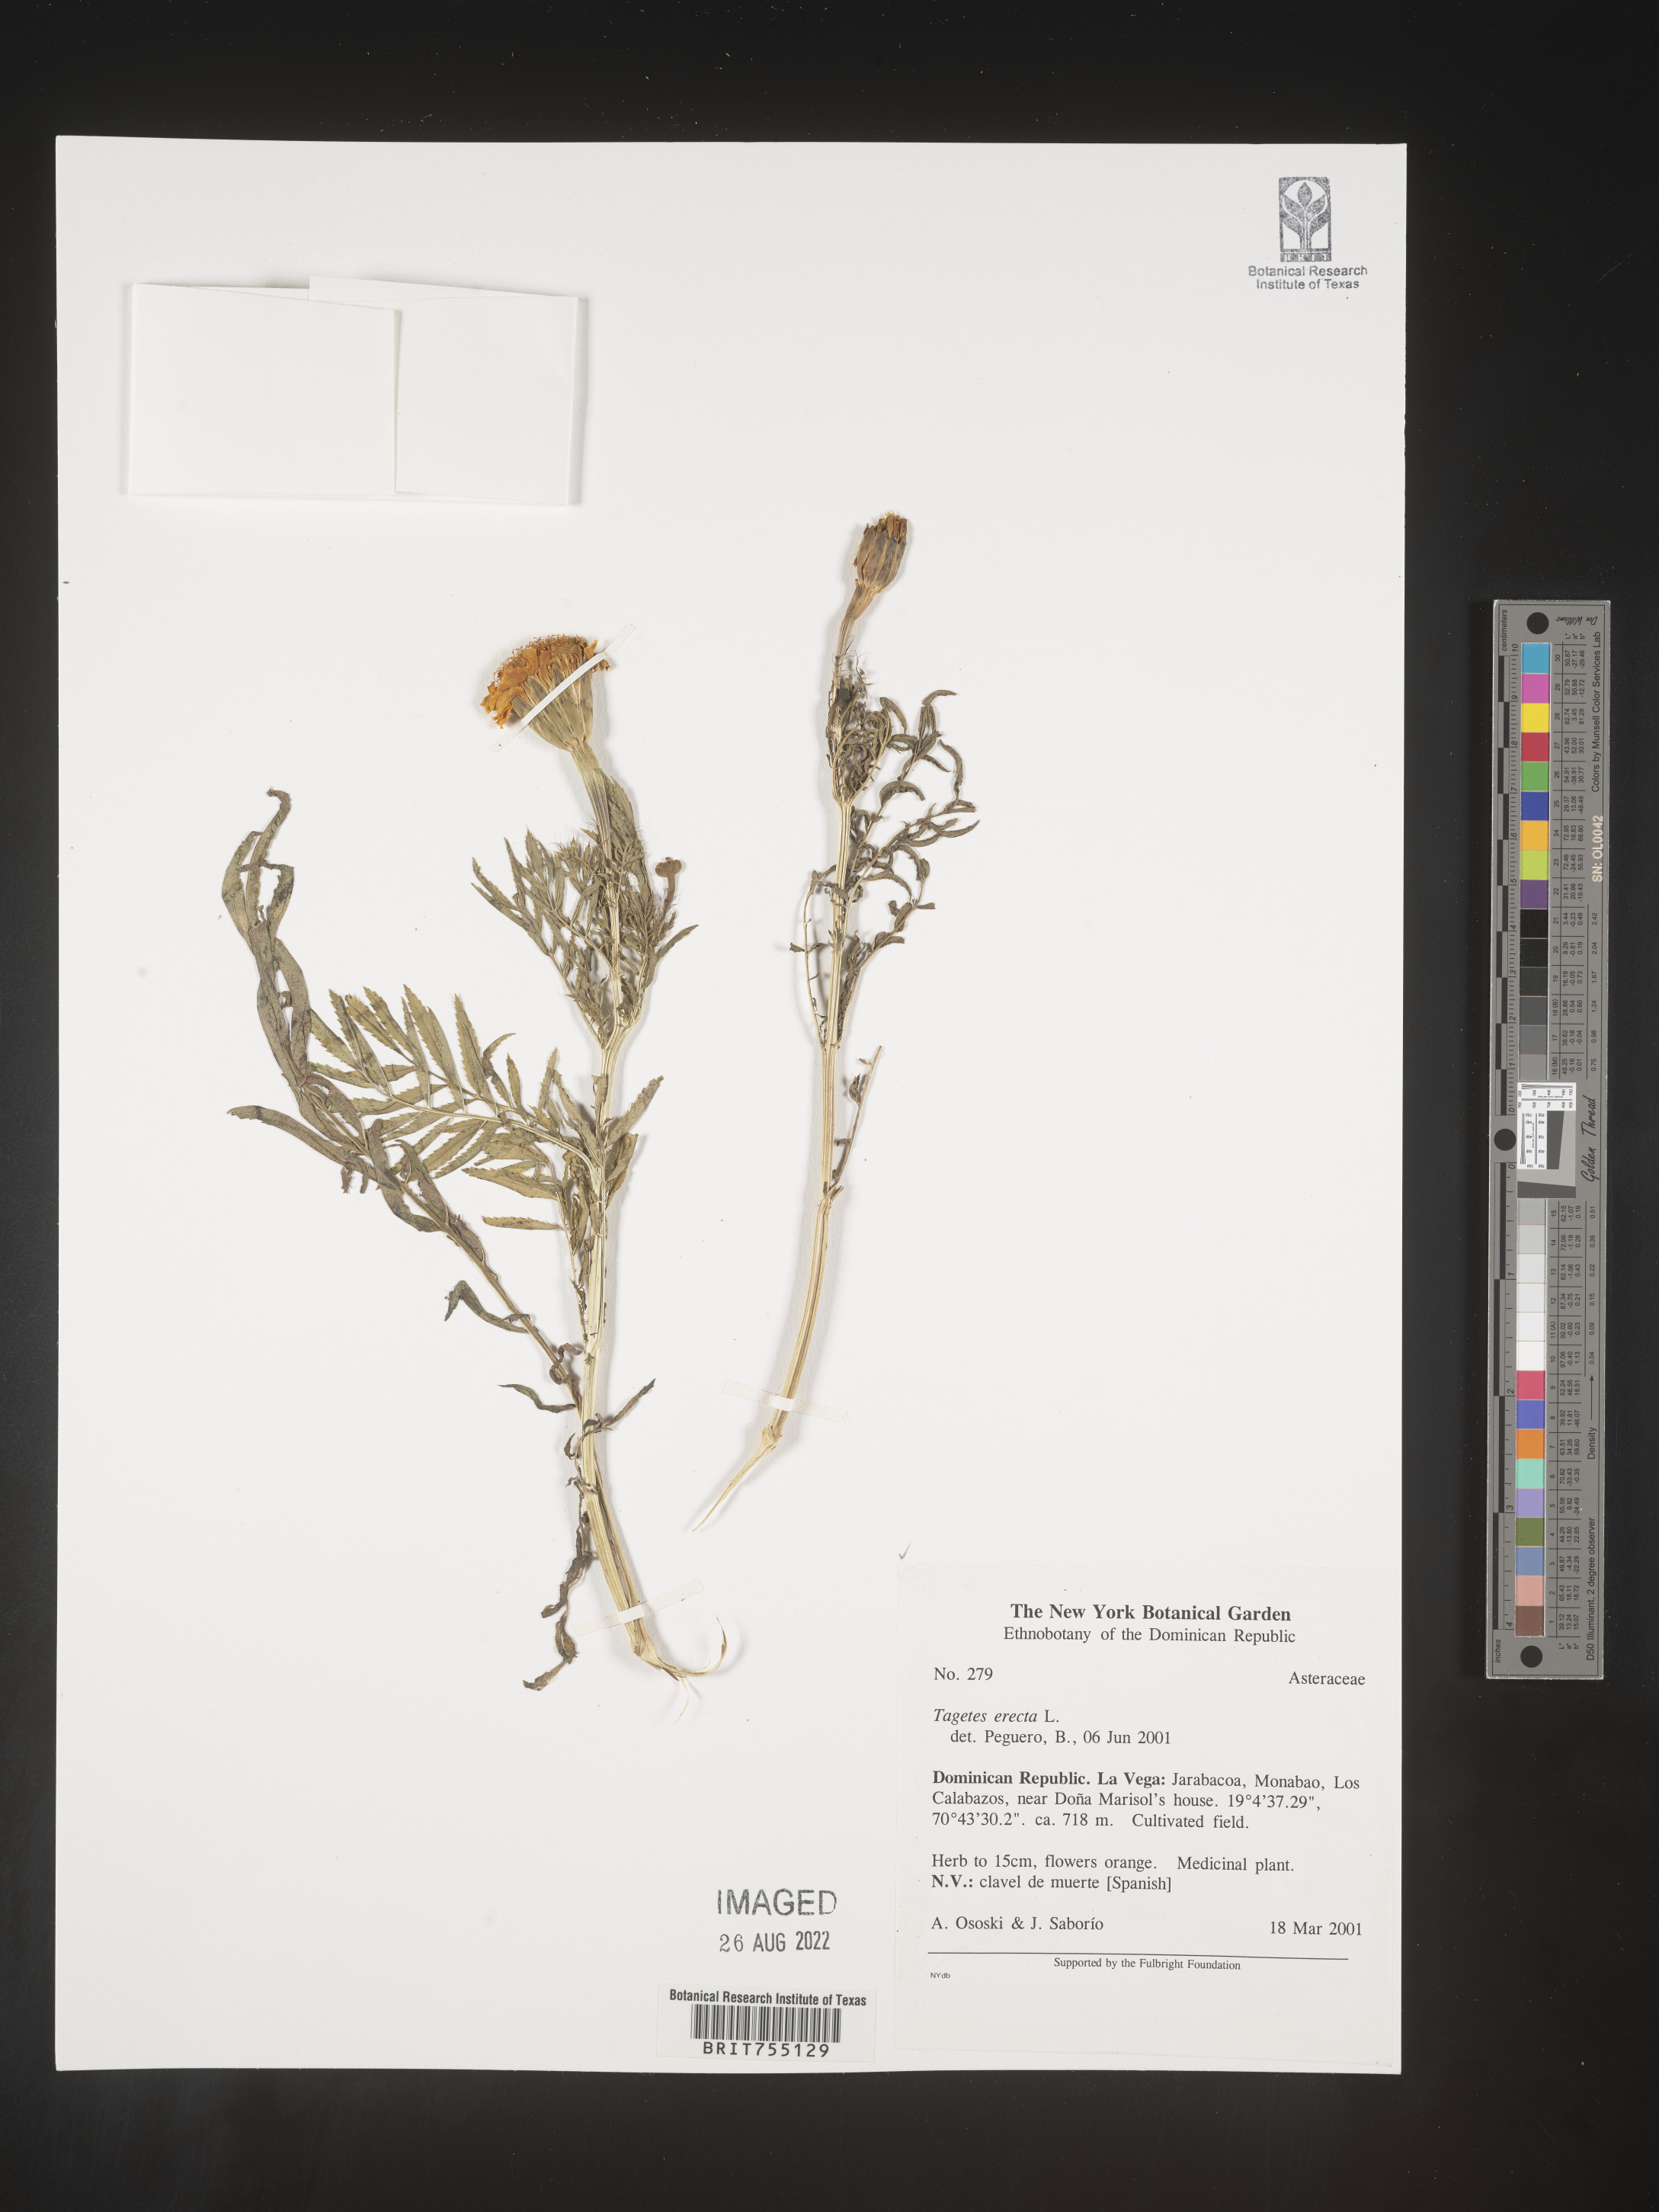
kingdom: Plantae
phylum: Tracheophyta
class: Magnoliopsida
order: Asterales
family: Asteraceae
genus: Tagetes
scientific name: Tagetes
